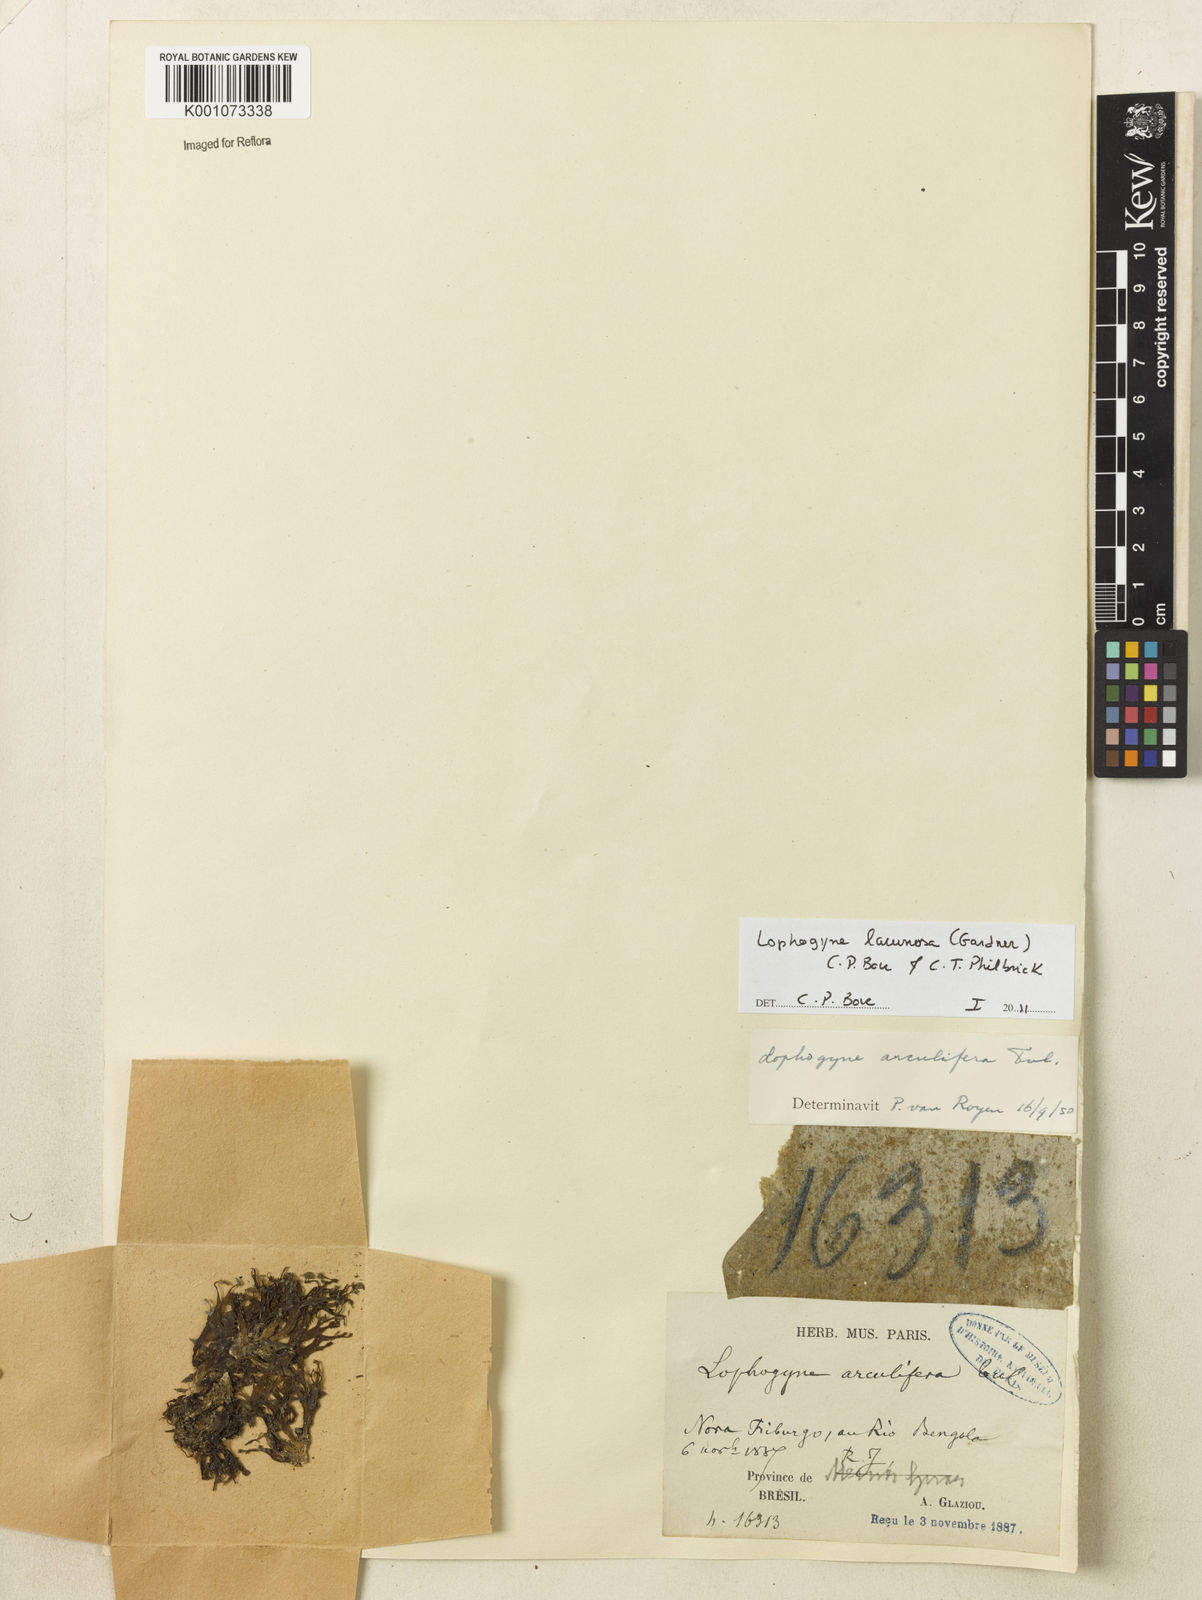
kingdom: Plantae
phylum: Tracheophyta
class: Magnoliopsida
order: Malpighiales
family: Podostemaceae
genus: Lophogyne
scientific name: Lophogyne lacunosa
